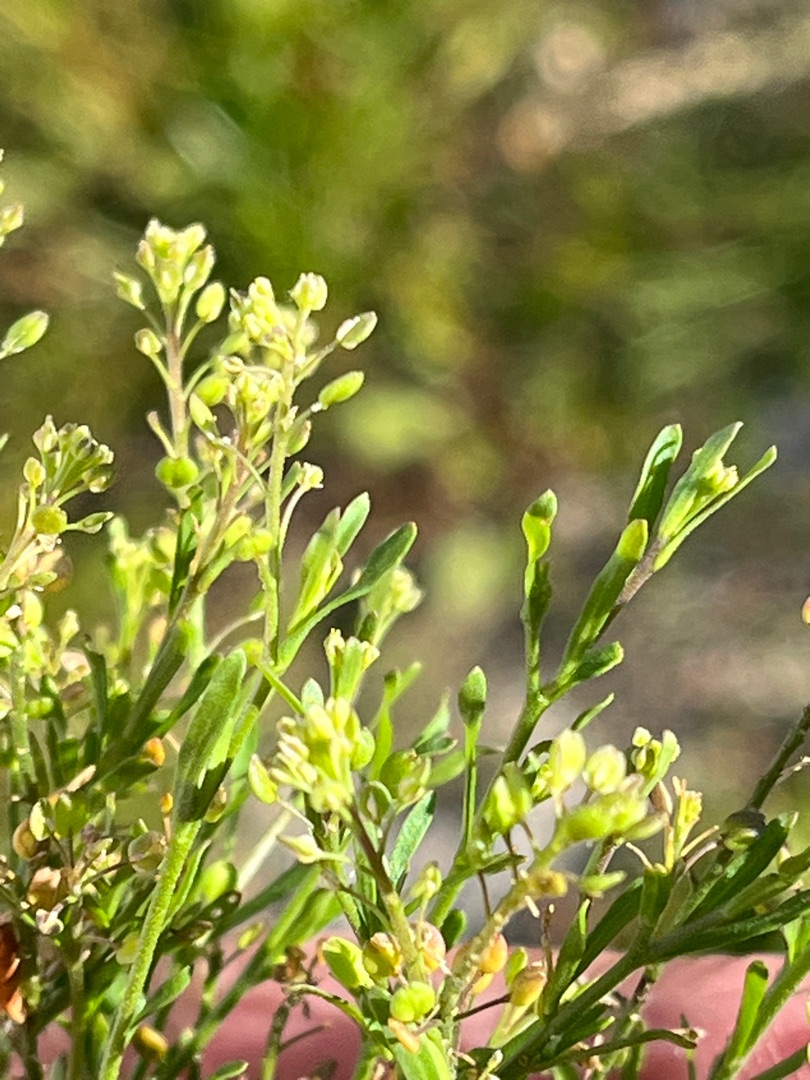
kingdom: Plantae
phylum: Tracheophyta
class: Magnoliopsida
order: Brassicales
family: Brassicaceae
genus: Lepidium
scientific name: Lepidium ruderale
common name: Stinkende karse
